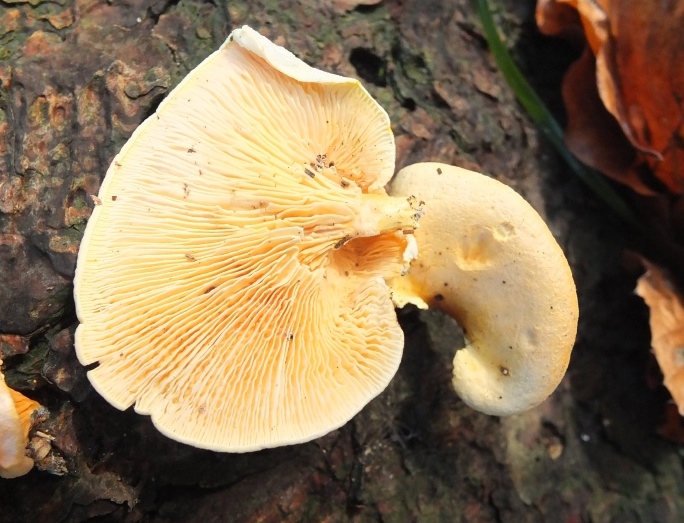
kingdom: Fungi
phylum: Basidiomycota
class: Agaricomycetes
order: Boletales
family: Tapinellaceae
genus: Tapinella
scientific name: Tapinella panuoides
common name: tømmer-viftesvamp
